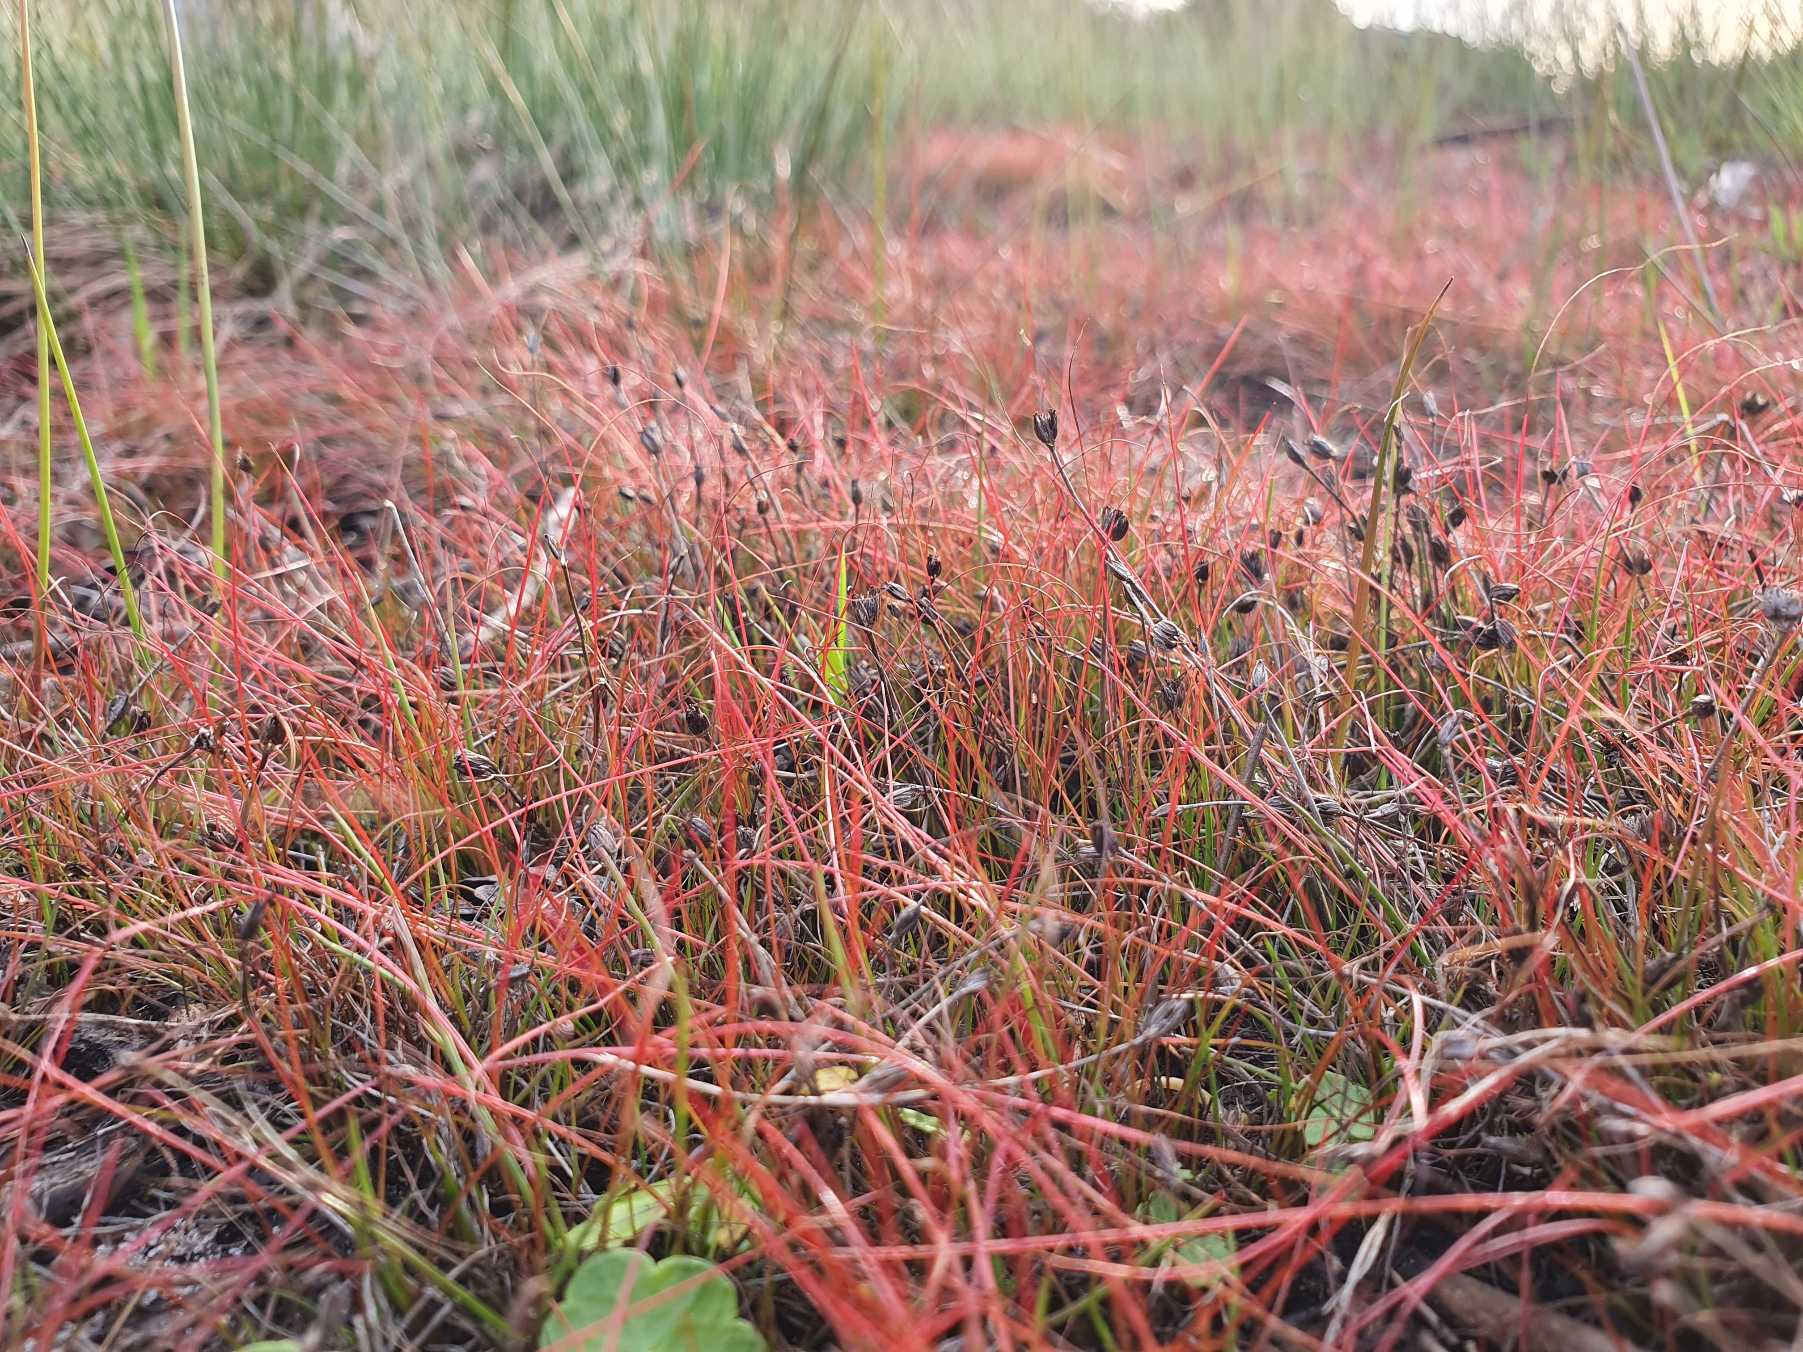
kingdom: Plantae
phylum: Tracheophyta
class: Liliopsida
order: Poales
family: Juncaceae
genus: Juncus
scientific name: Juncus bulbosus
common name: Liden siv
